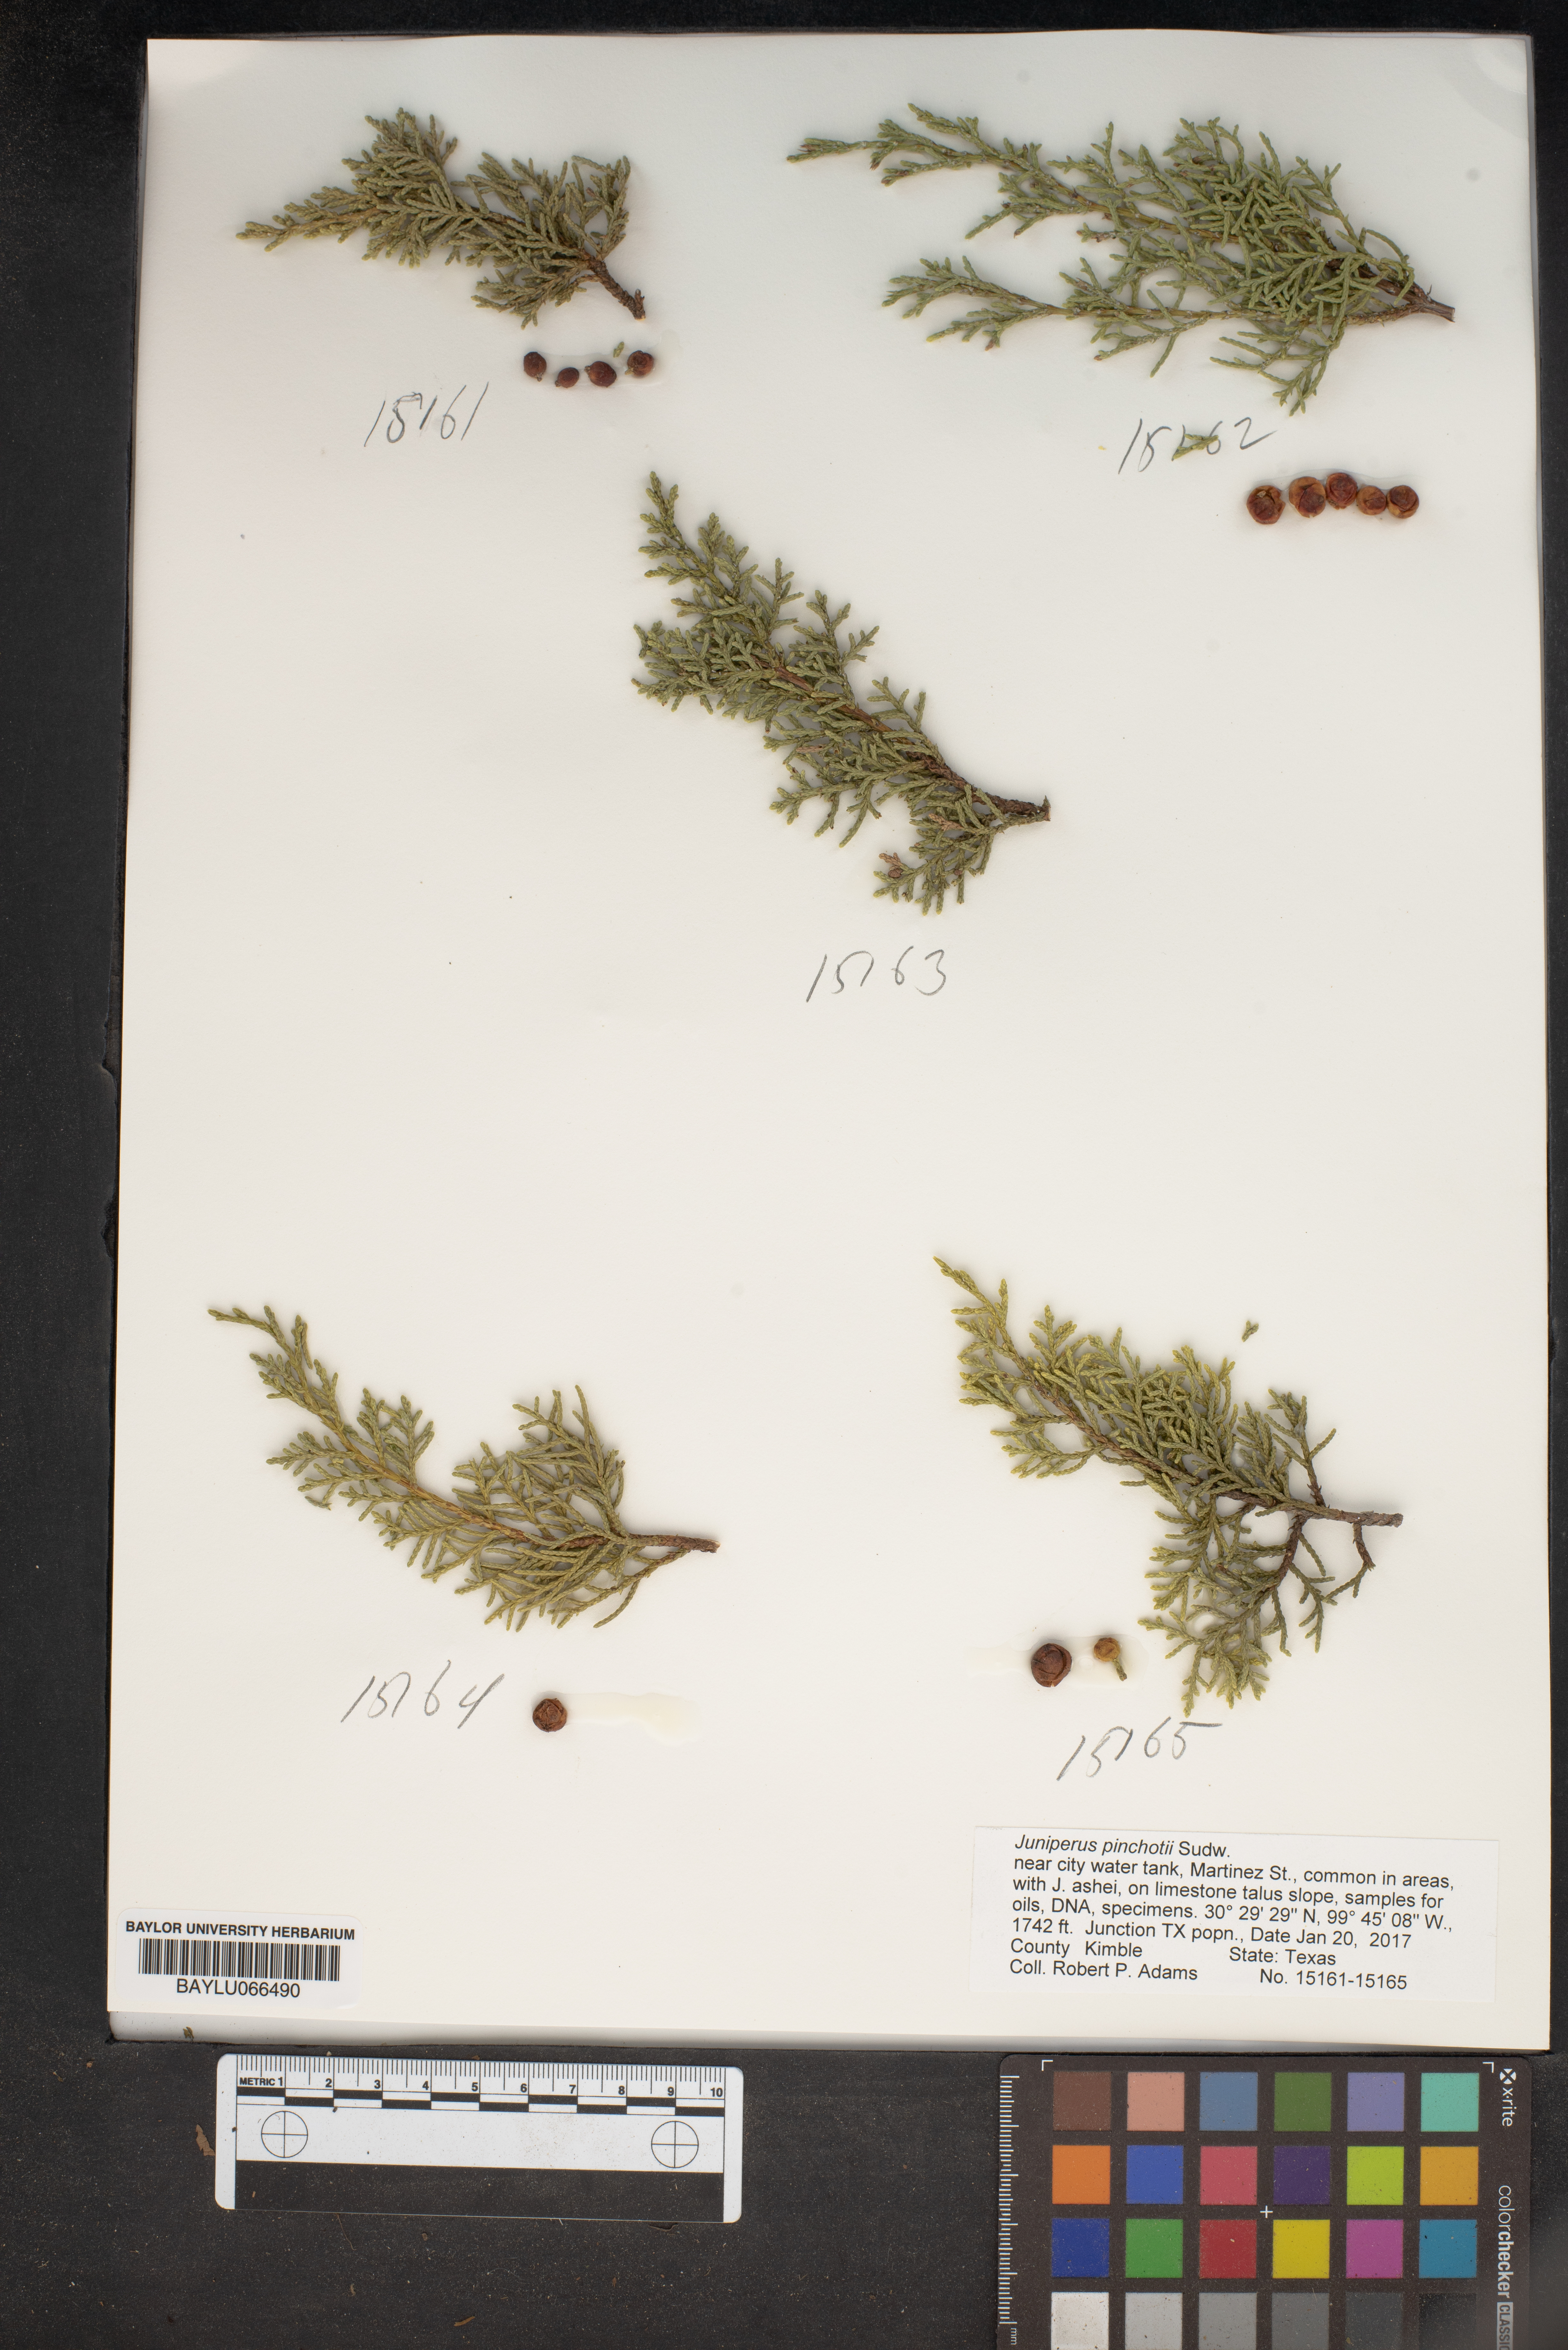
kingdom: Plantae
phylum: Tracheophyta
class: Pinopsida
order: Pinales
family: Cupressaceae
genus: Juniperus
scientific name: Juniperus pinchotii
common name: Pinchot juniper
